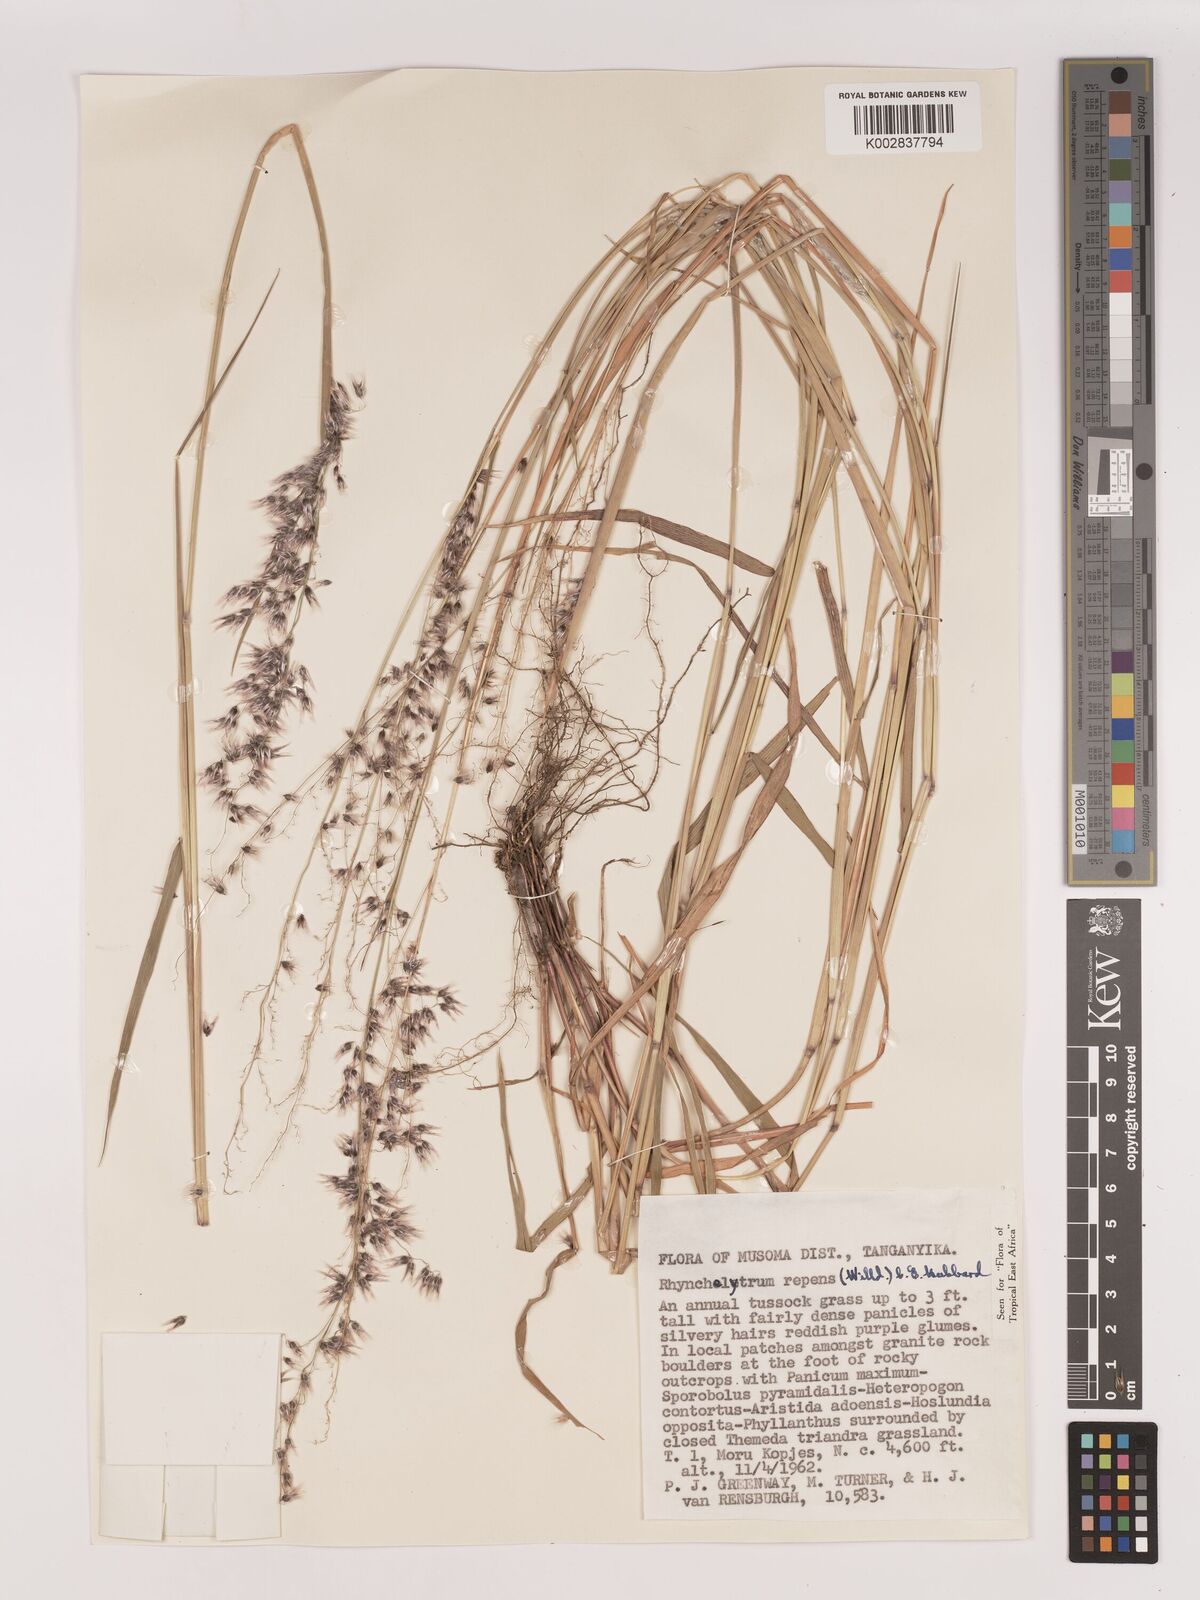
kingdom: Plantae
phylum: Tracheophyta
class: Liliopsida
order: Poales
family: Poaceae
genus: Melinis
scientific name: Melinis repens
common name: Rose natal grass
